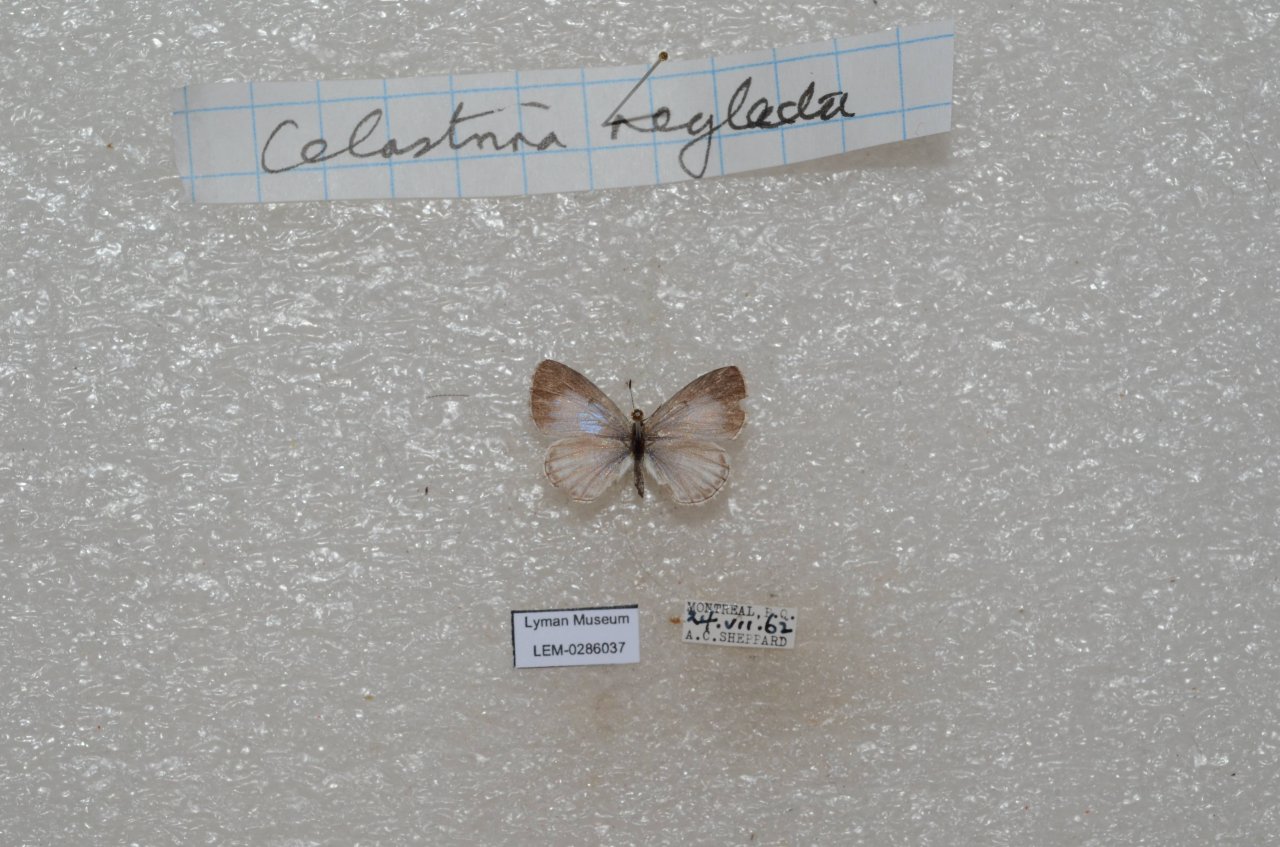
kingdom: Animalia
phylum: Arthropoda
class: Insecta
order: Lepidoptera
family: Lycaenidae
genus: Celastrina
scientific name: Celastrina lucia
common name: Northern Spring Azure
